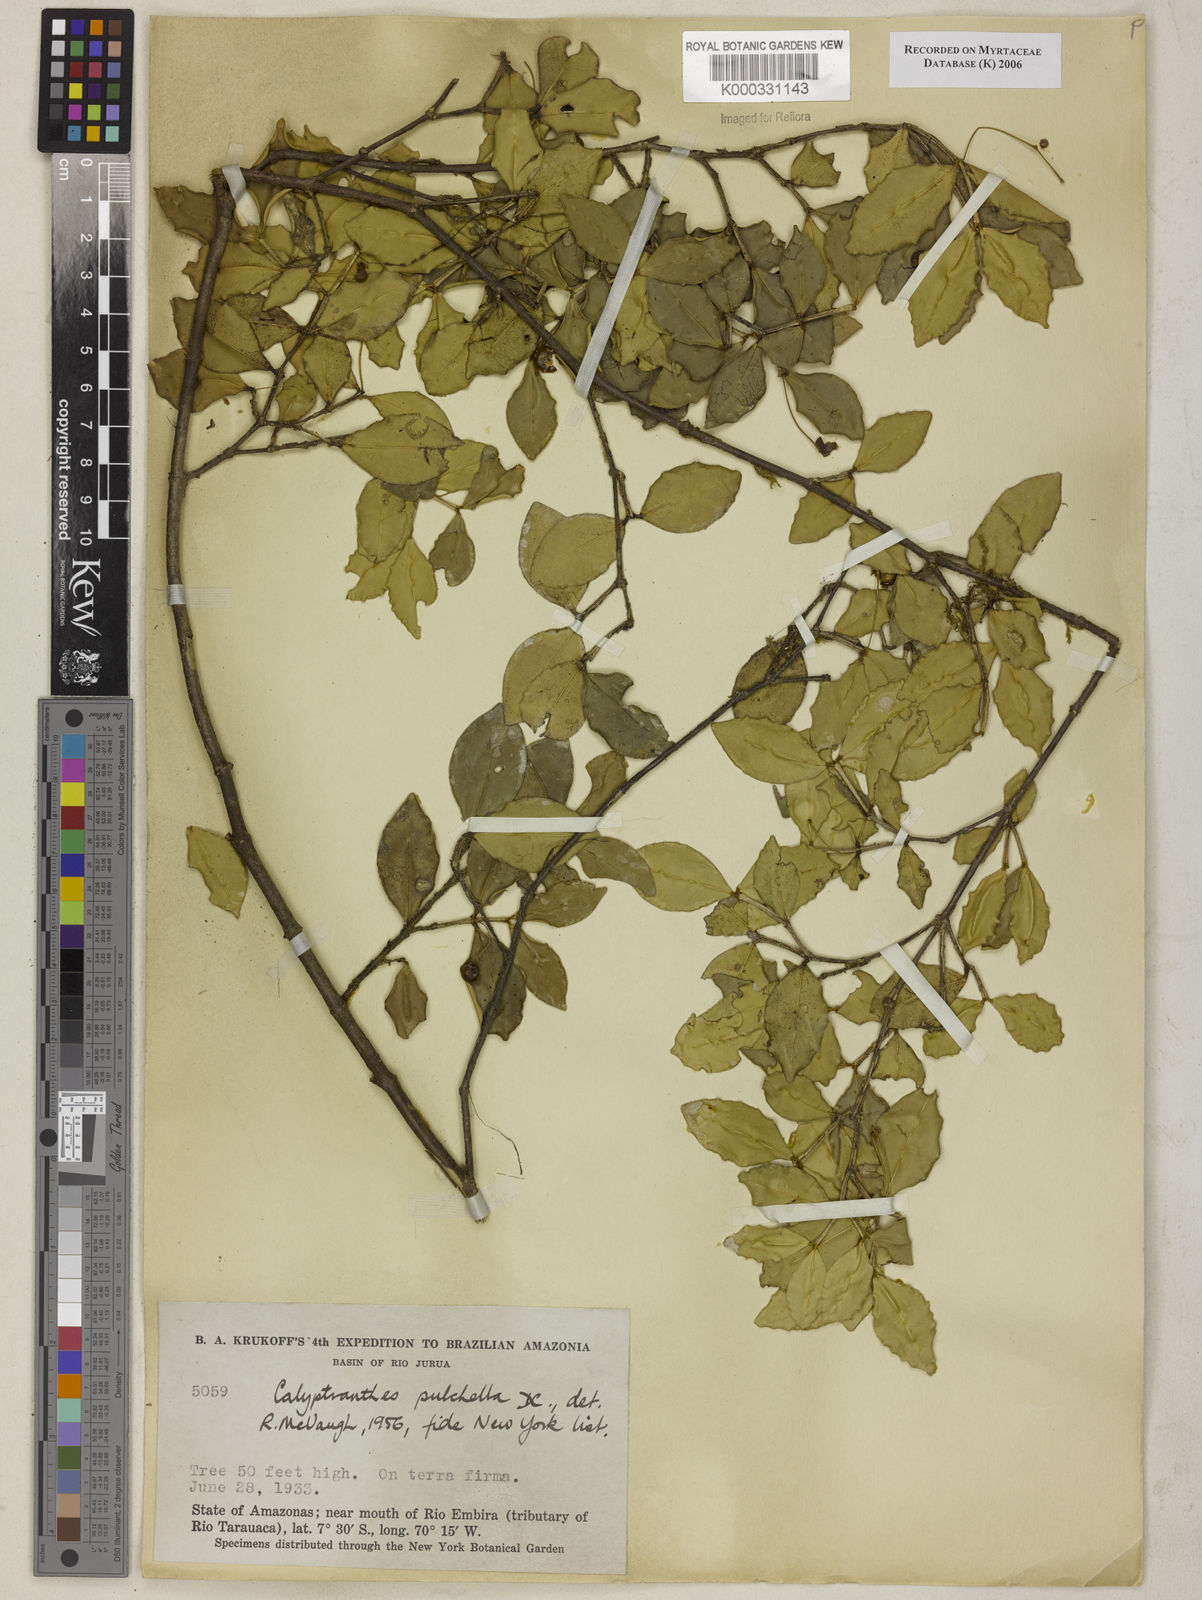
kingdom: Plantae
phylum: Tracheophyta
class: Magnoliopsida
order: Myrtales
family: Myrtaceae
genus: Myrcia
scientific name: Myrcia pulchella
